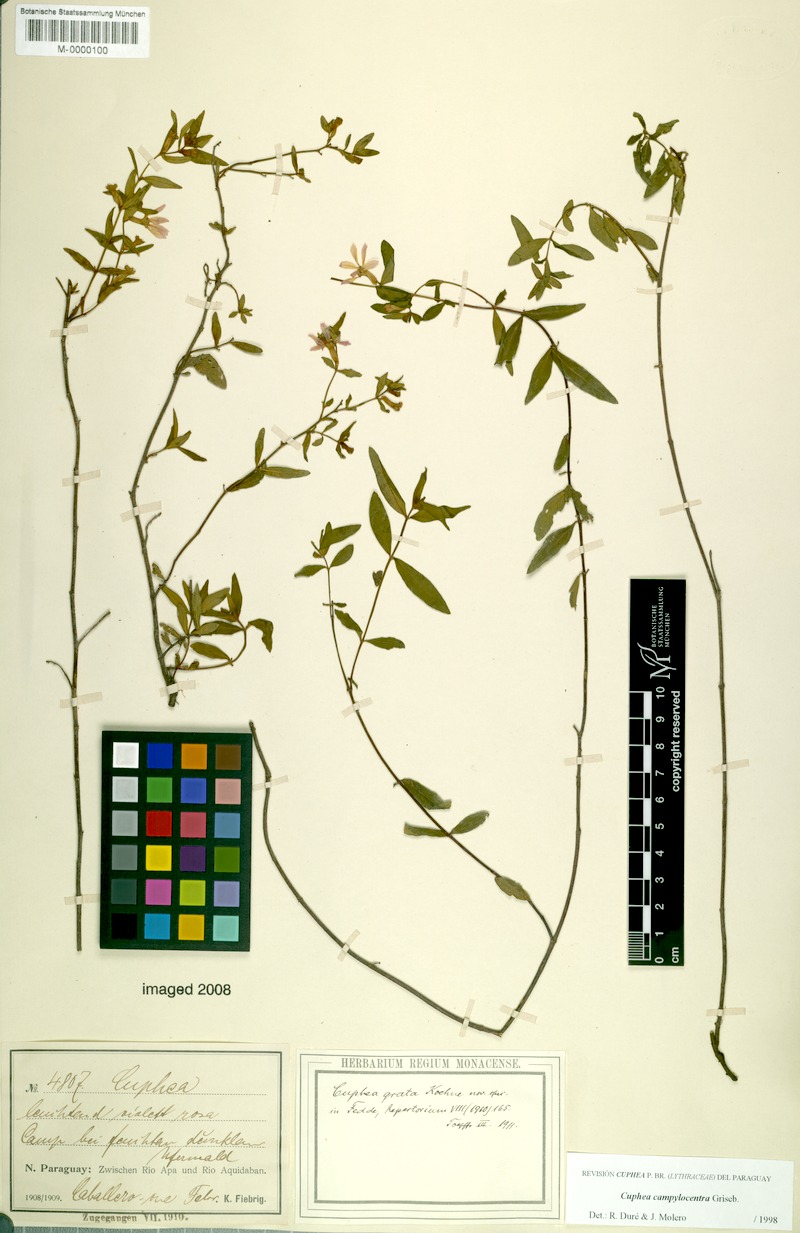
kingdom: Plantae
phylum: Tracheophyta
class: Magnoliopsida
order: Myrtales
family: Lythraceae
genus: Cuphea
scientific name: Cuphea campylocentra
